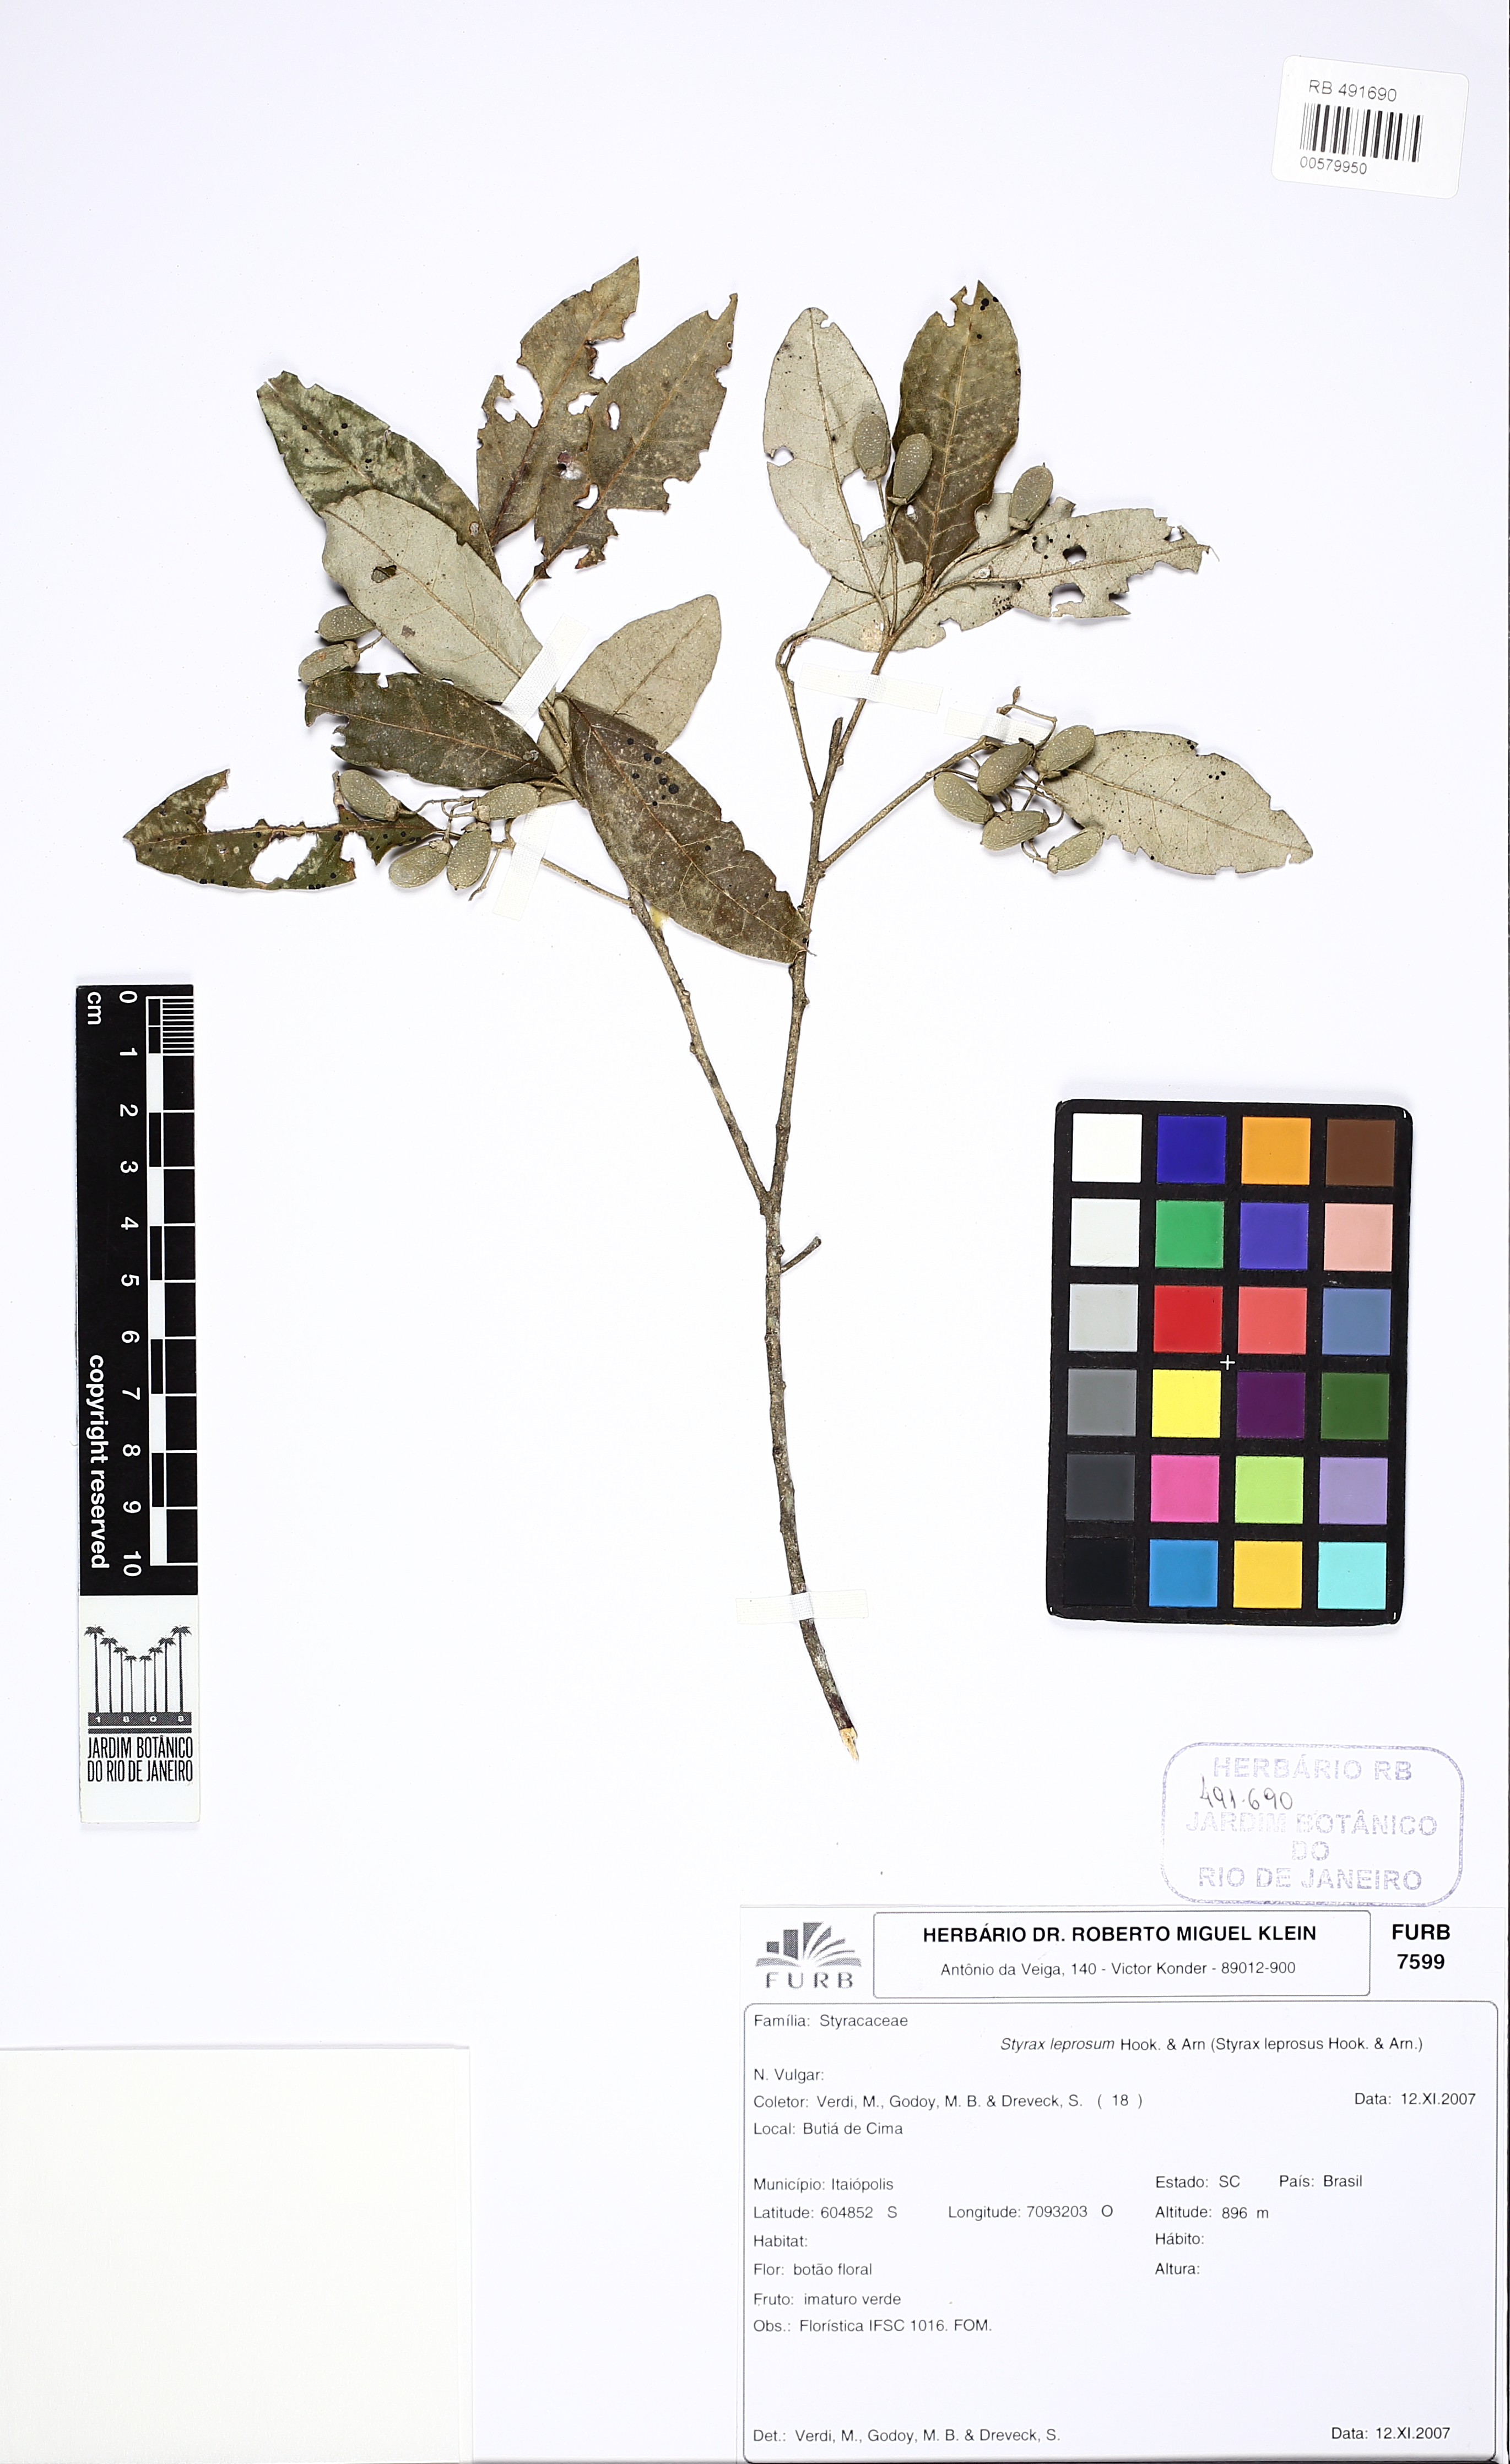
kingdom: Plantae
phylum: Tracheophyta
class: Magnoliopsida
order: Ericales
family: Styracaceae
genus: Styrax
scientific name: Styrax leprosus
